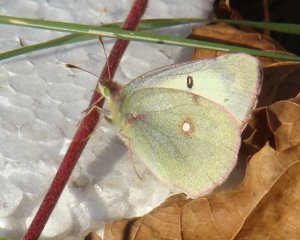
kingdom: Animalia
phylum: Arthropoda
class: Insecta
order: Lepidoptera
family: Pieridae
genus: Colias
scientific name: Colias philodice
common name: Clouded Sulphur
